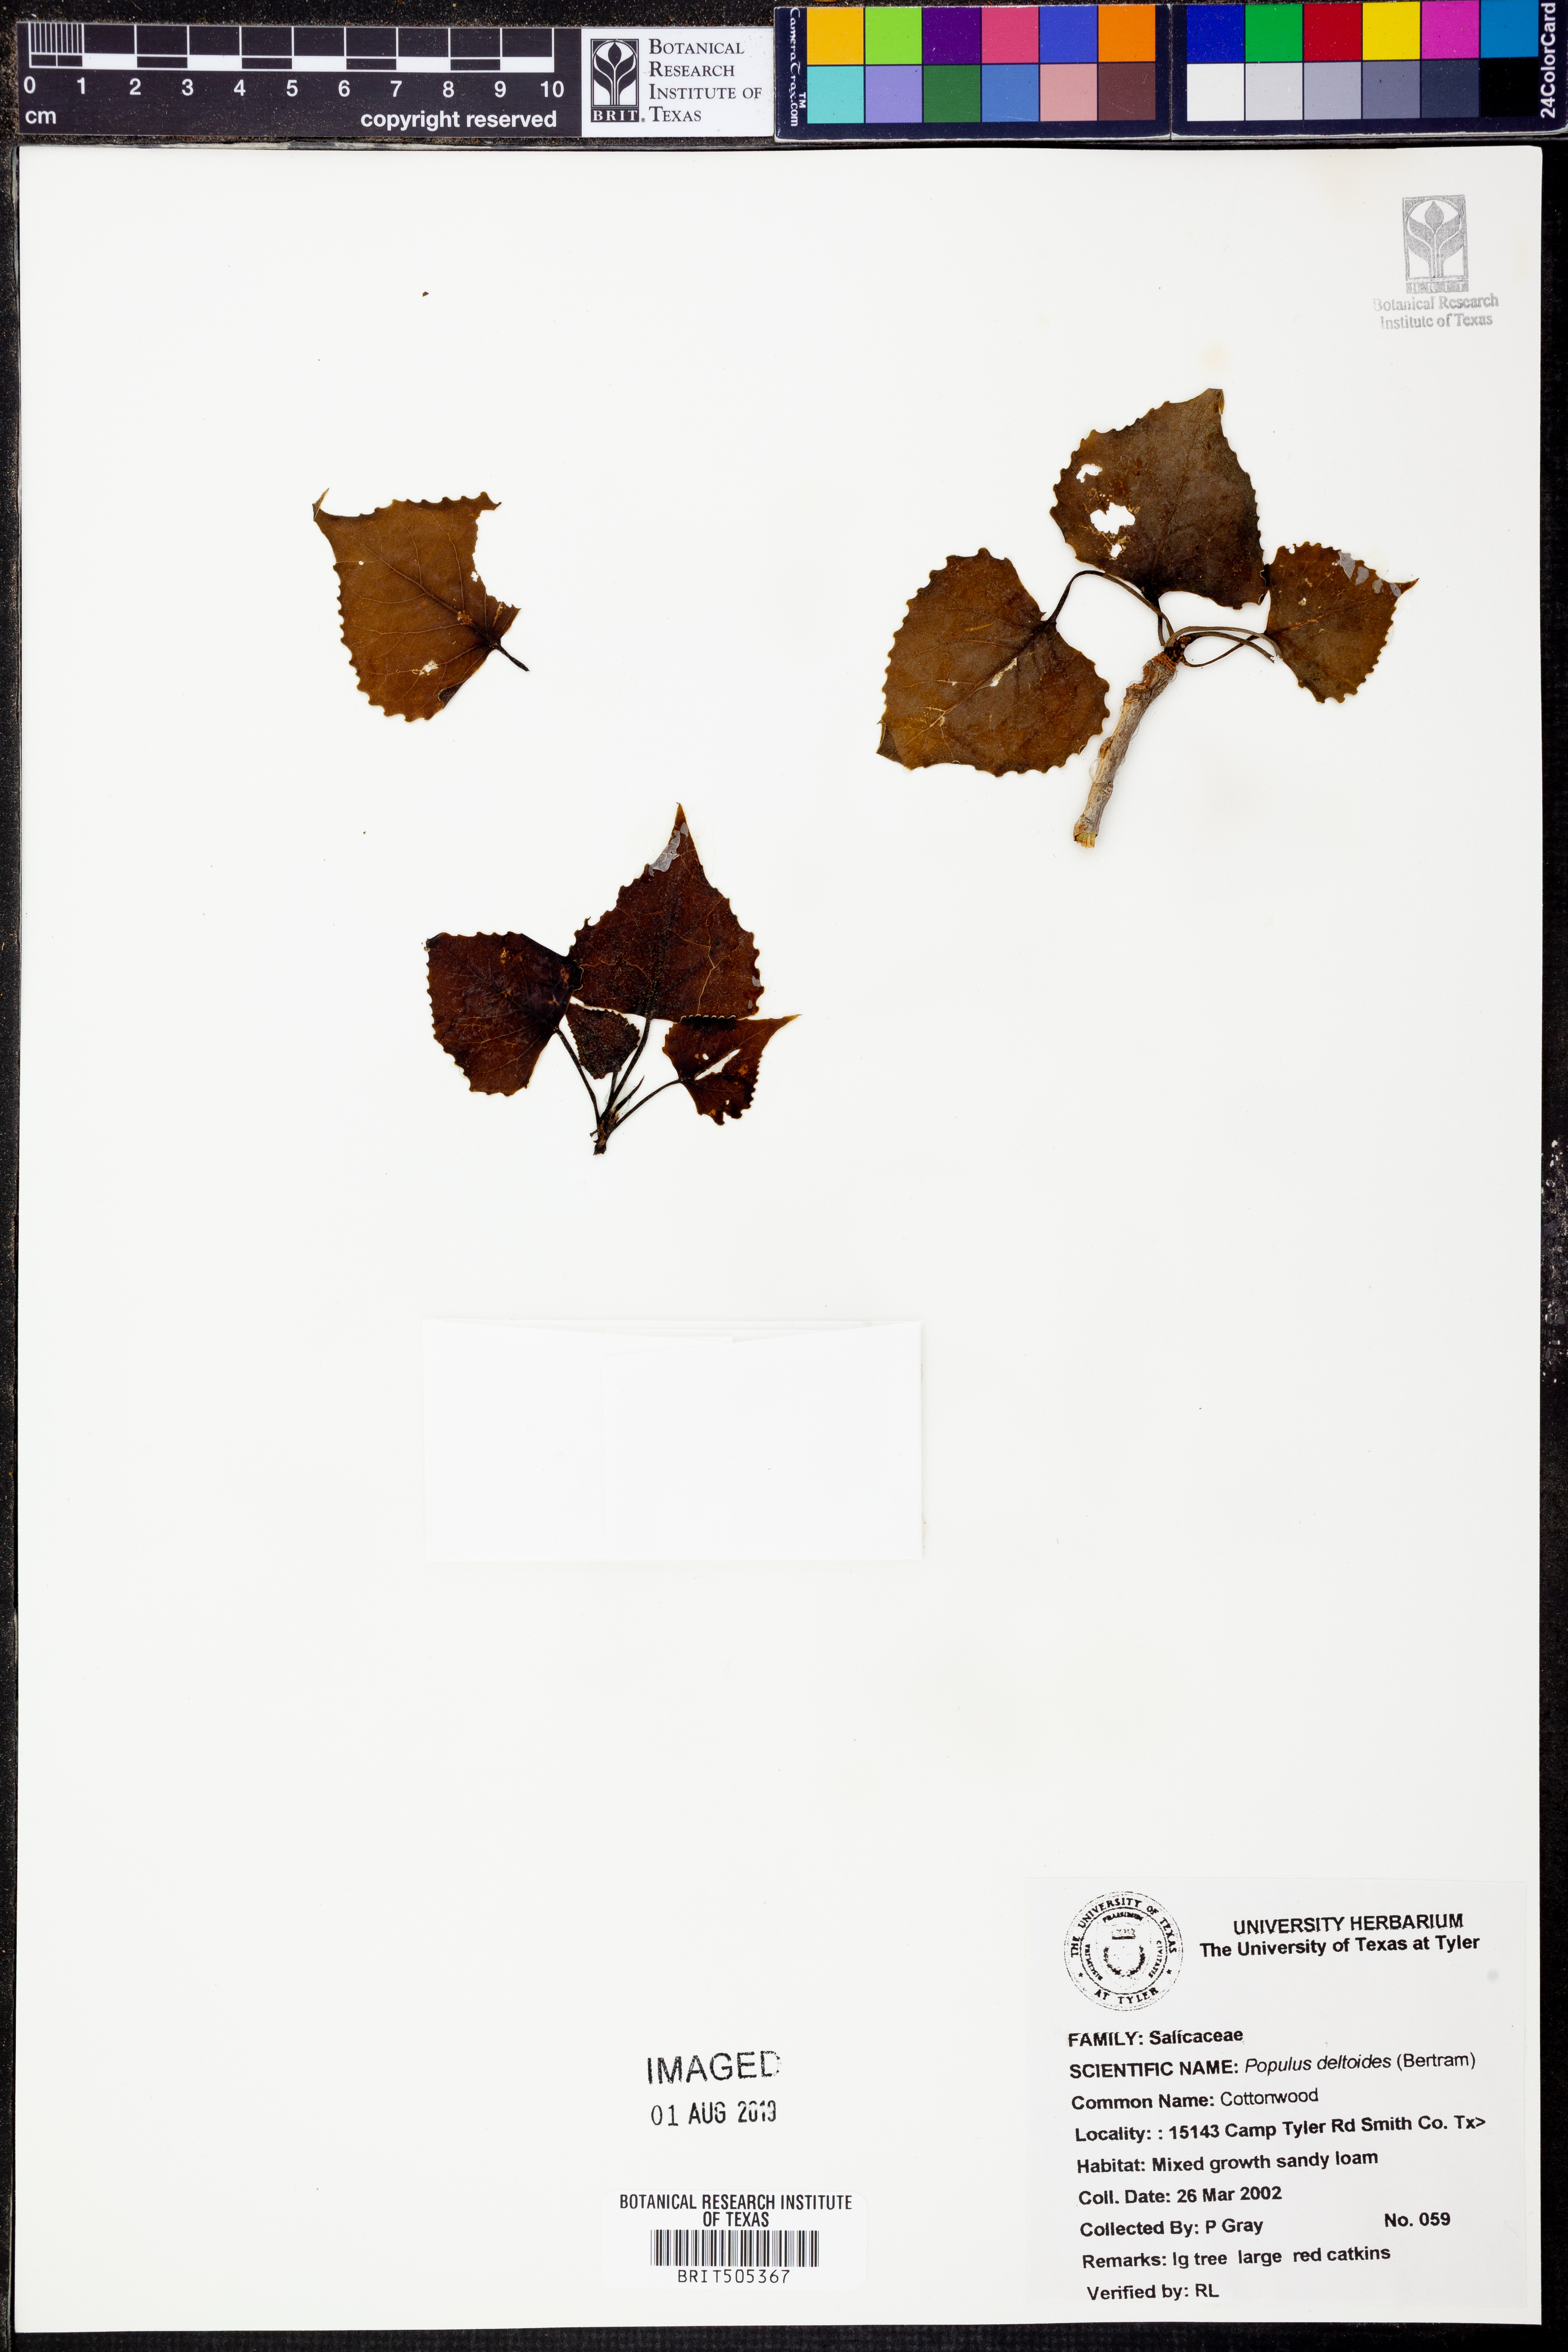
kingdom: Plantae
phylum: Tracheophyta
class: Magnoliopsida
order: Malpighiales
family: Salicaceae
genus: Populus
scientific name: Populus deltoides
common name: Eastern cottonwood
